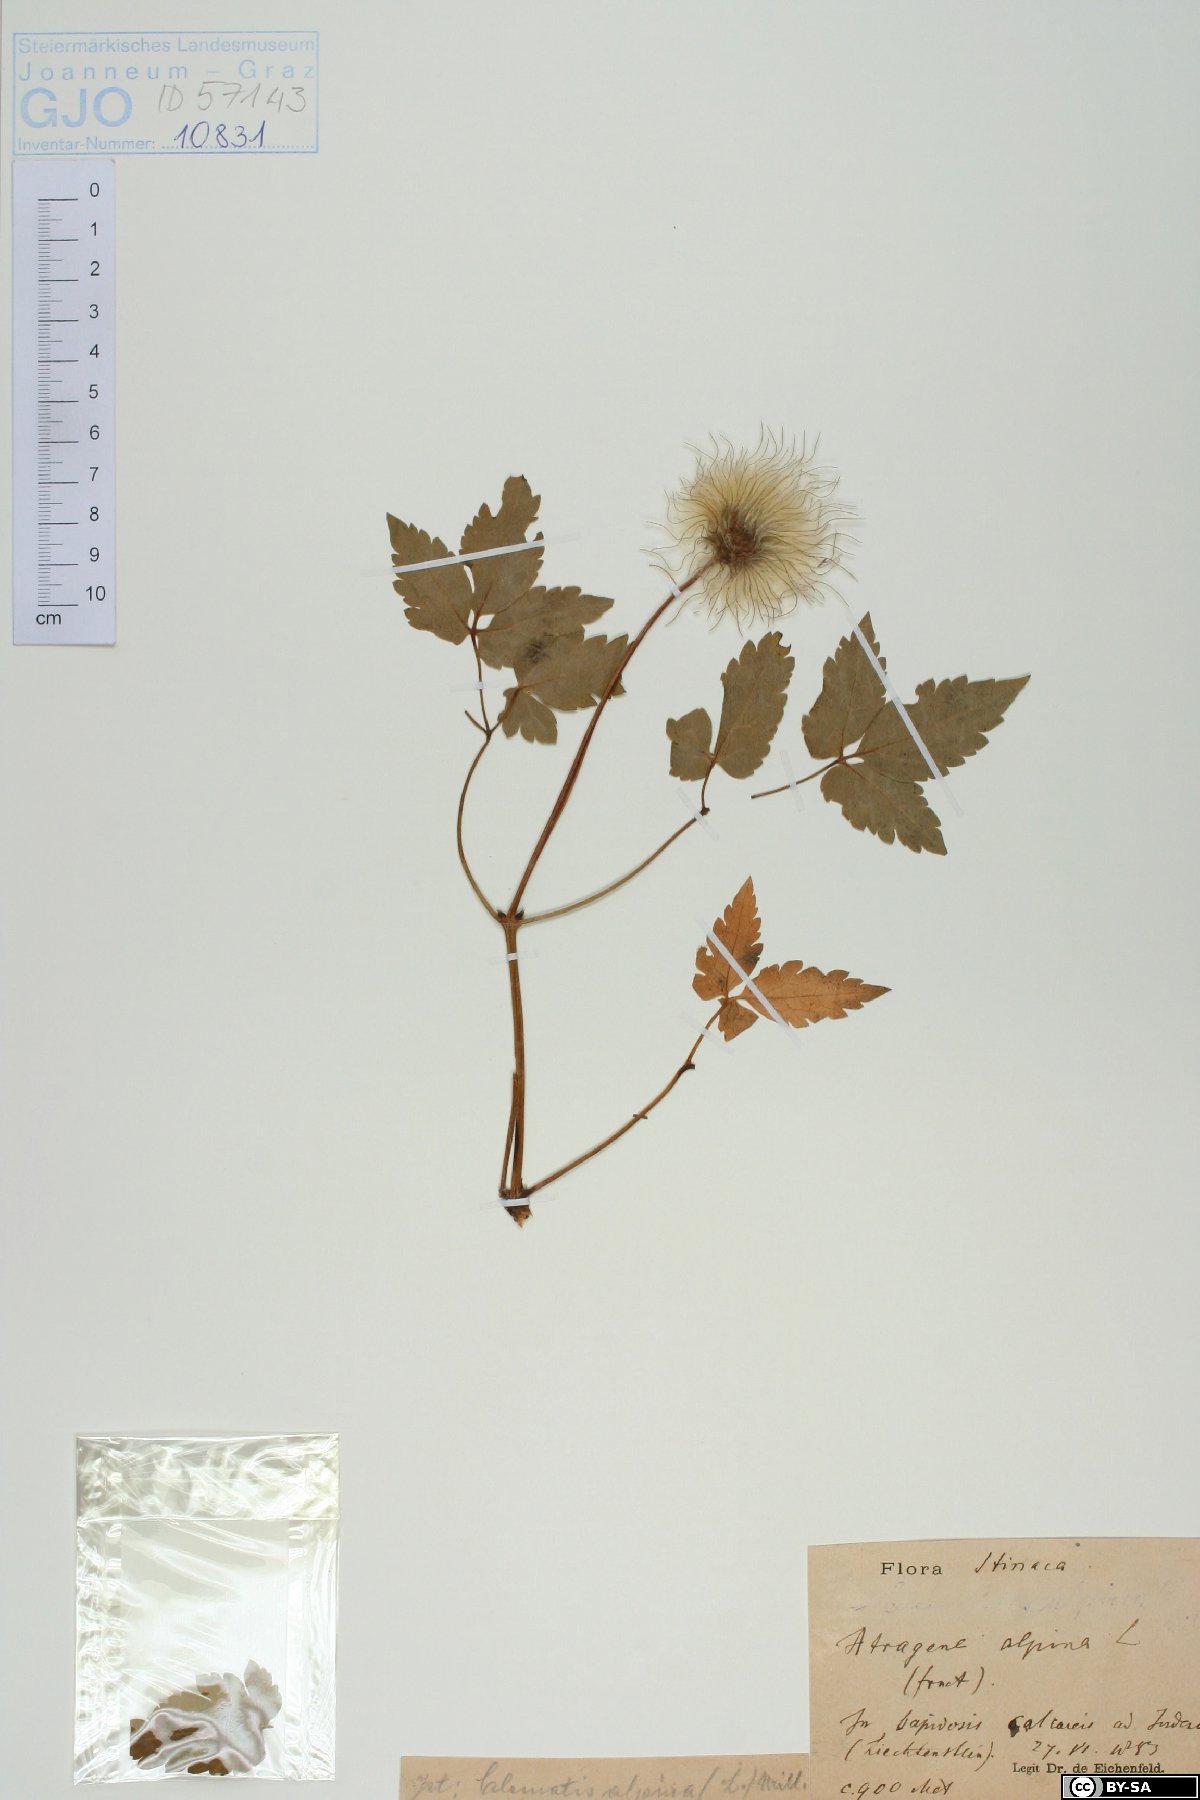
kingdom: Plantae
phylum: Tracheophyta
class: Magnoliopsida
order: Ranunculales
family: Ranunculaceae
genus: Clematis
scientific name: Clematis alpina
